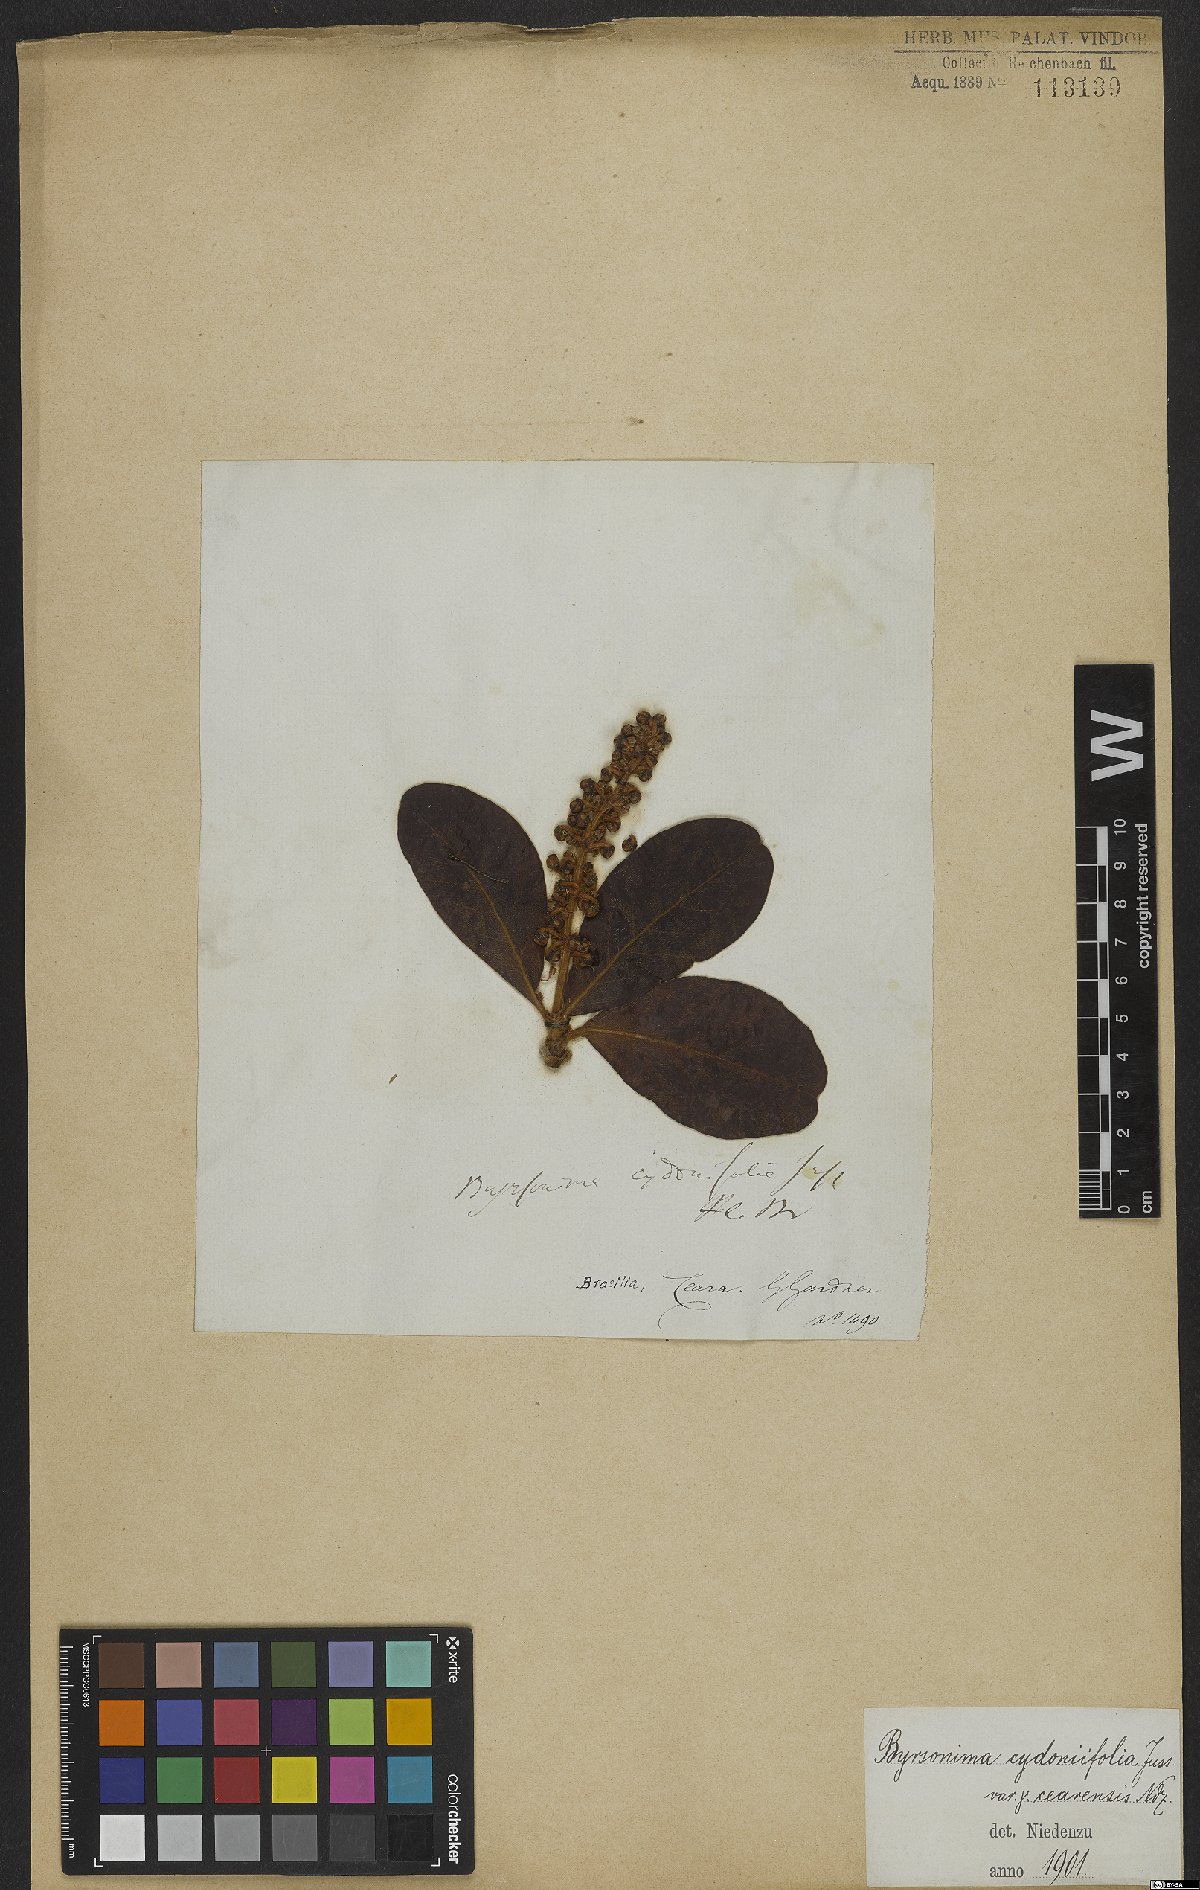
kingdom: Plantae
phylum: Tracheophyta
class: Magnoliopsida
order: Malpighiales
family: Malpighiaceae
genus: Byrsonima
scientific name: Byrsonima cydoniifolia
